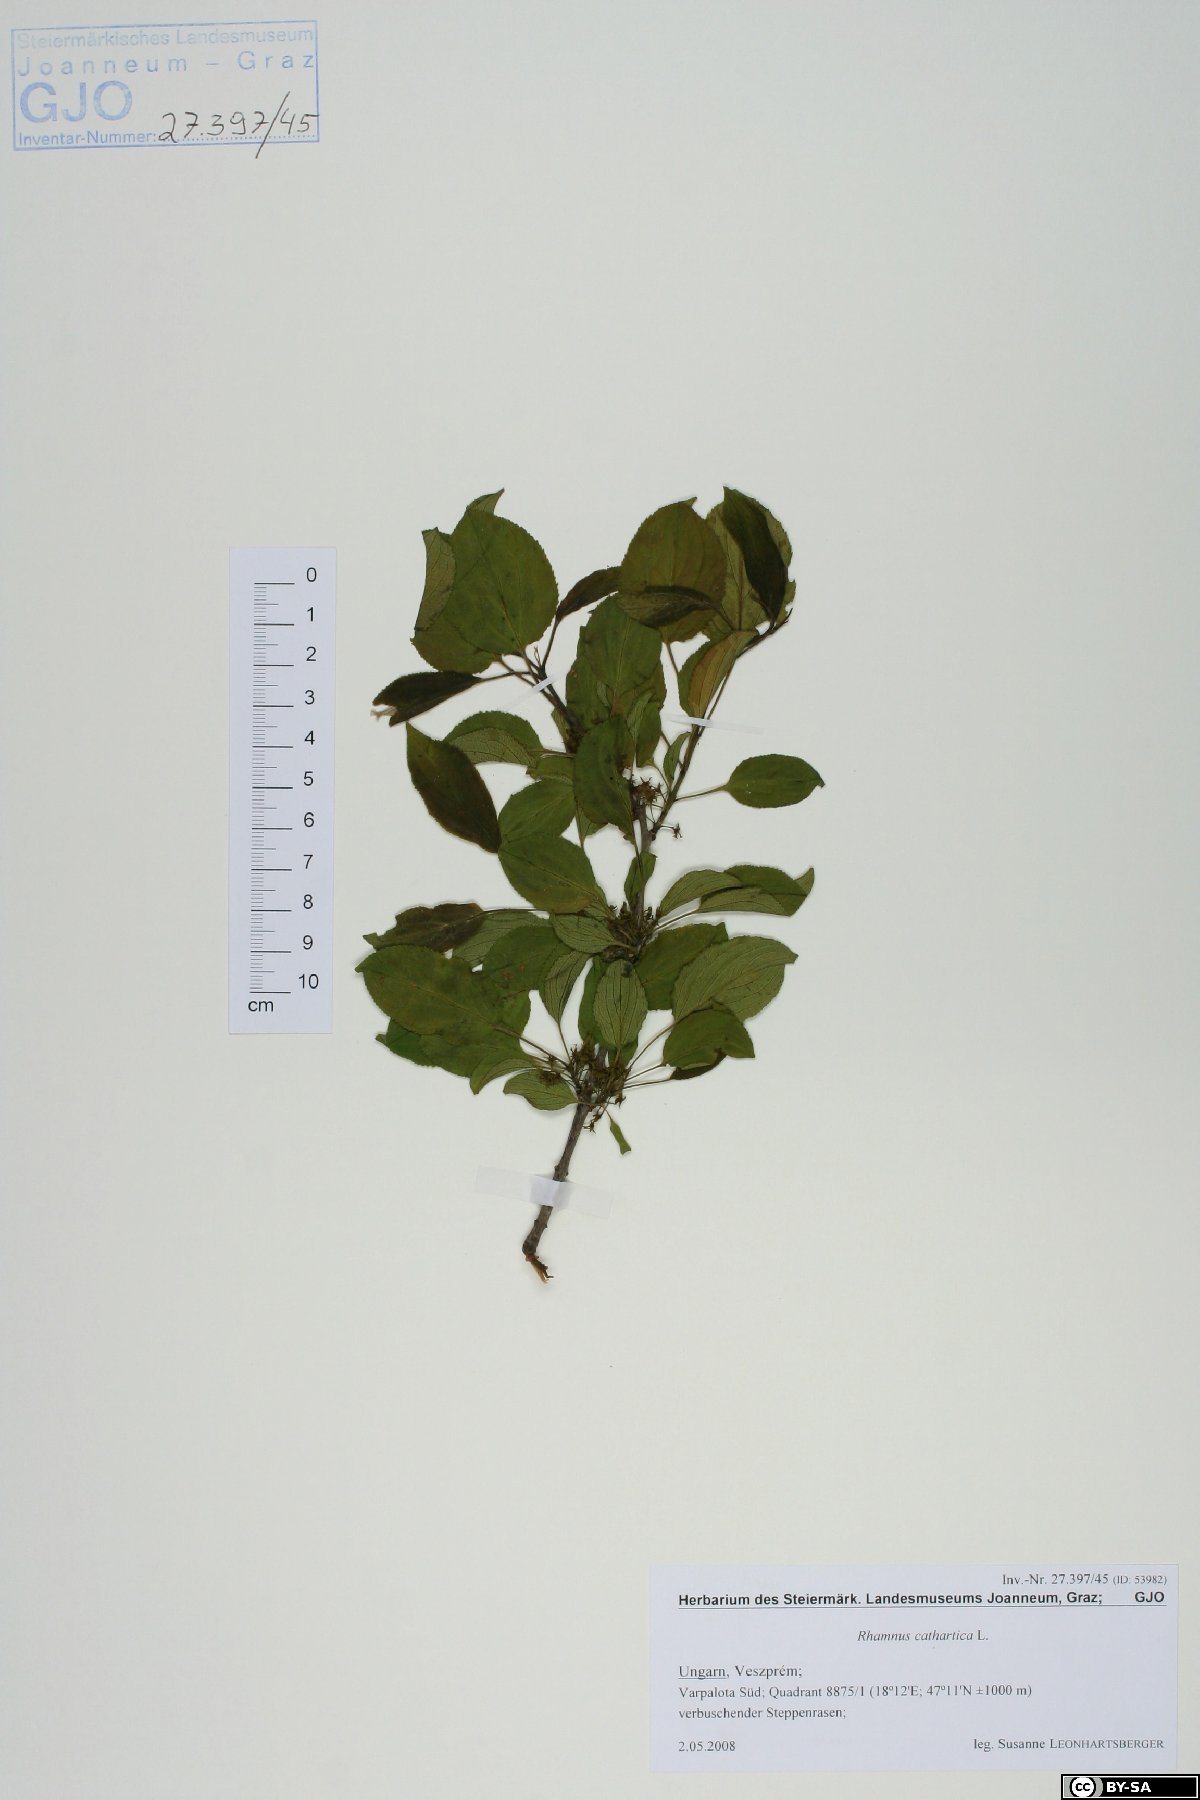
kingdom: Plantae
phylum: Tracheophyta
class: Magnoliopsida
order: Rosales
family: Rhamnaceae
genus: Rhamnus
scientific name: Rhamnus cathartica
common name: Common buckthorn
